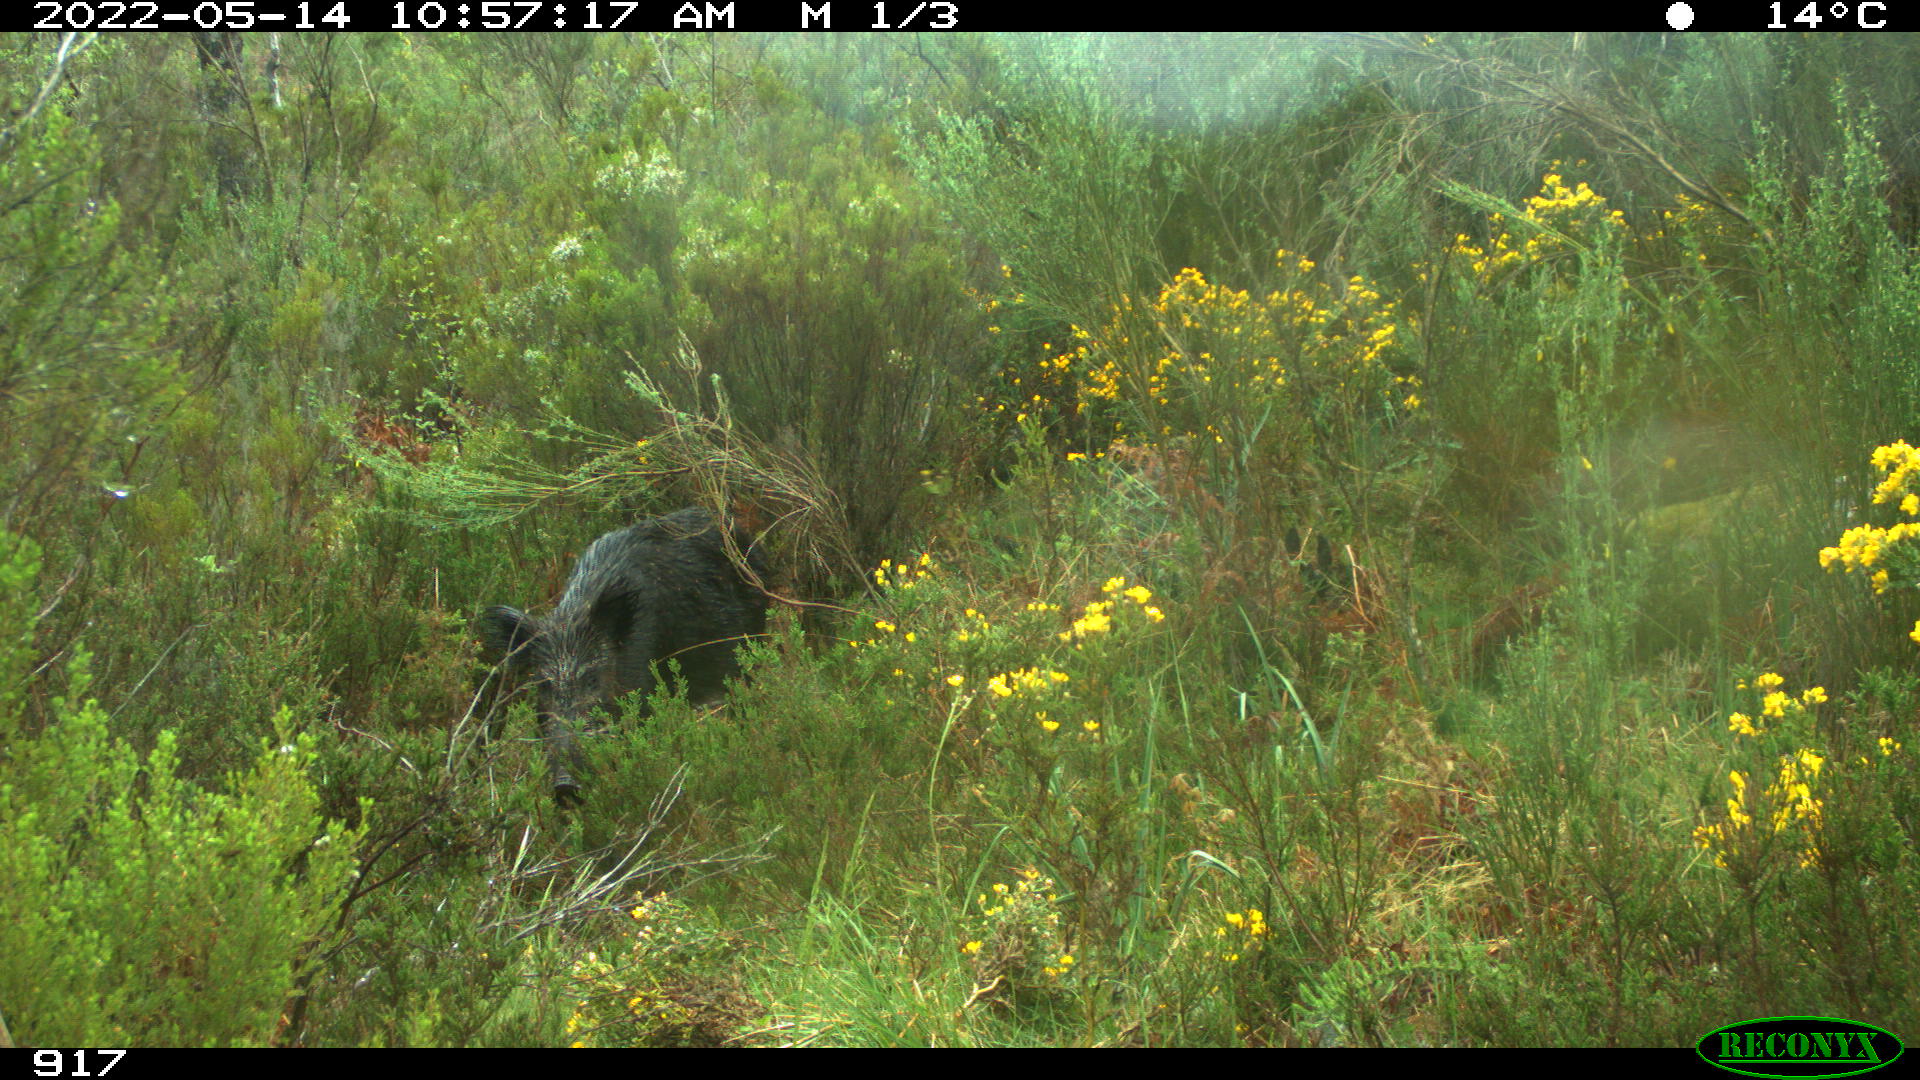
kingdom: Animalia
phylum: Chordata
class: Mammalia
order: Artiodactyla
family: Suidae
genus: Sus
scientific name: Sus scrofa
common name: Wild boar
